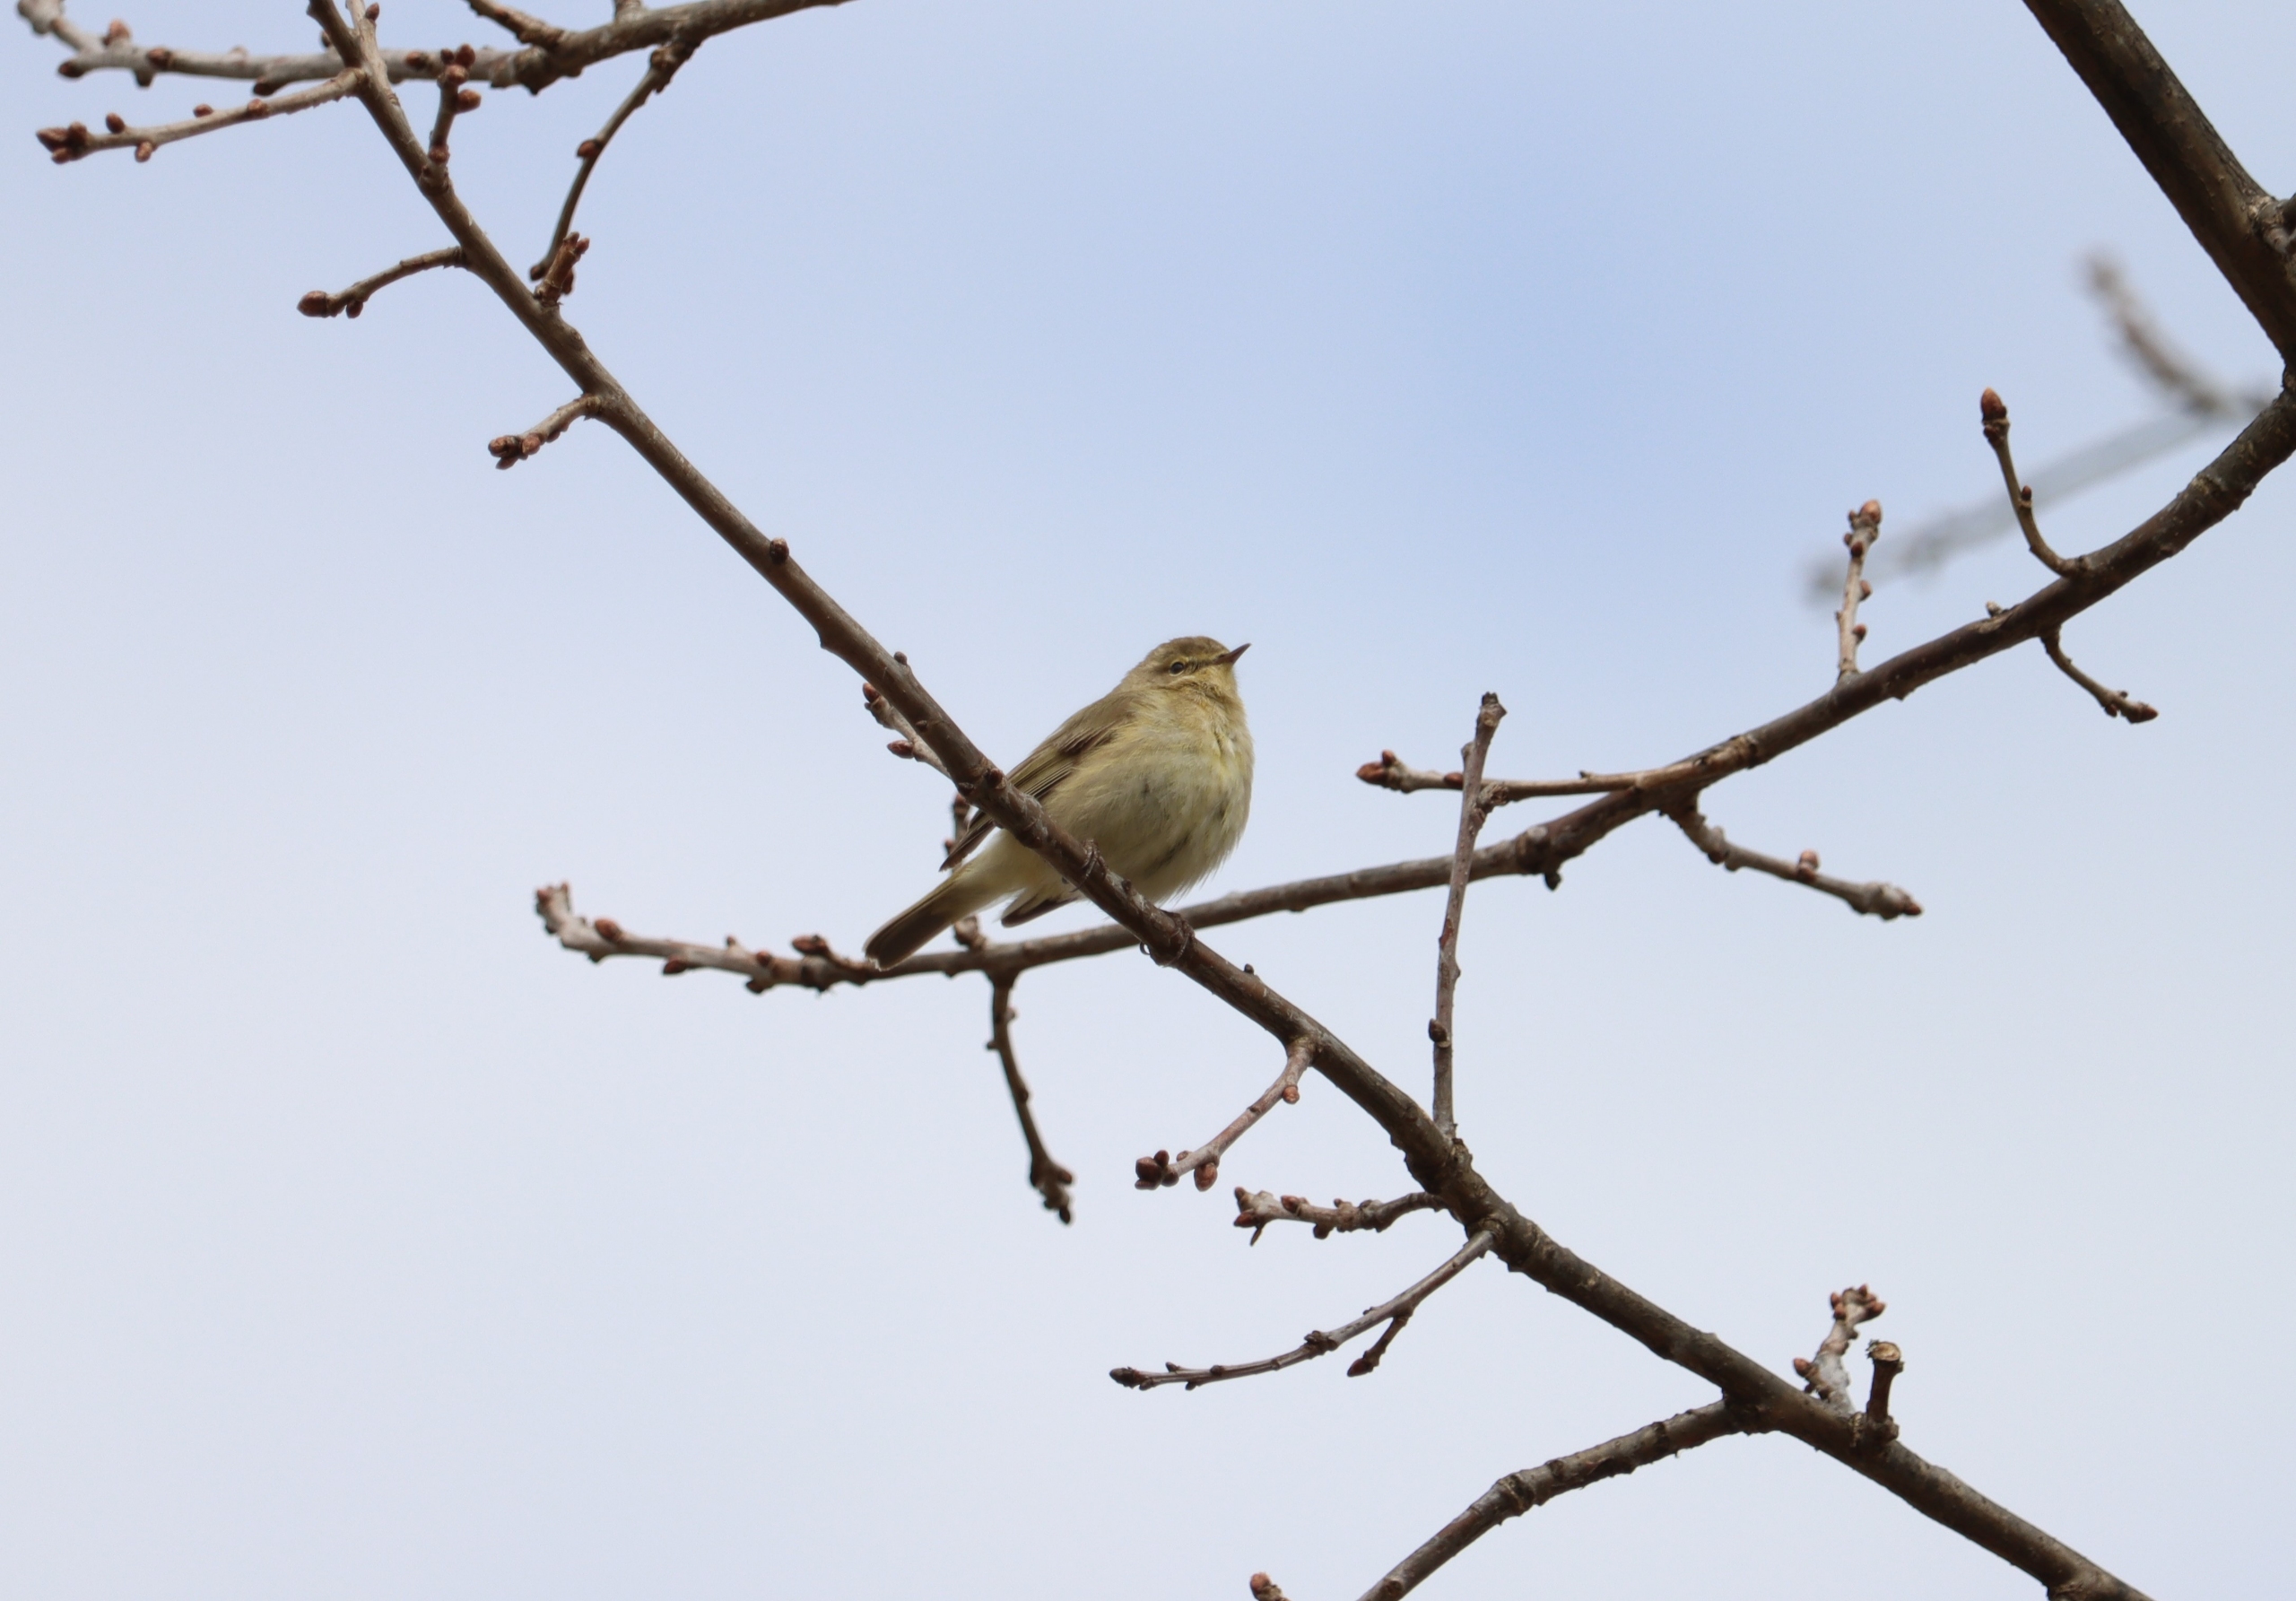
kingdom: Animalia
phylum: Chordata
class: Aves
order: Passeriformes
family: Phylloscopidae
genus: Phylloscopus
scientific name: Phylloscopus collybita
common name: Gransanger
